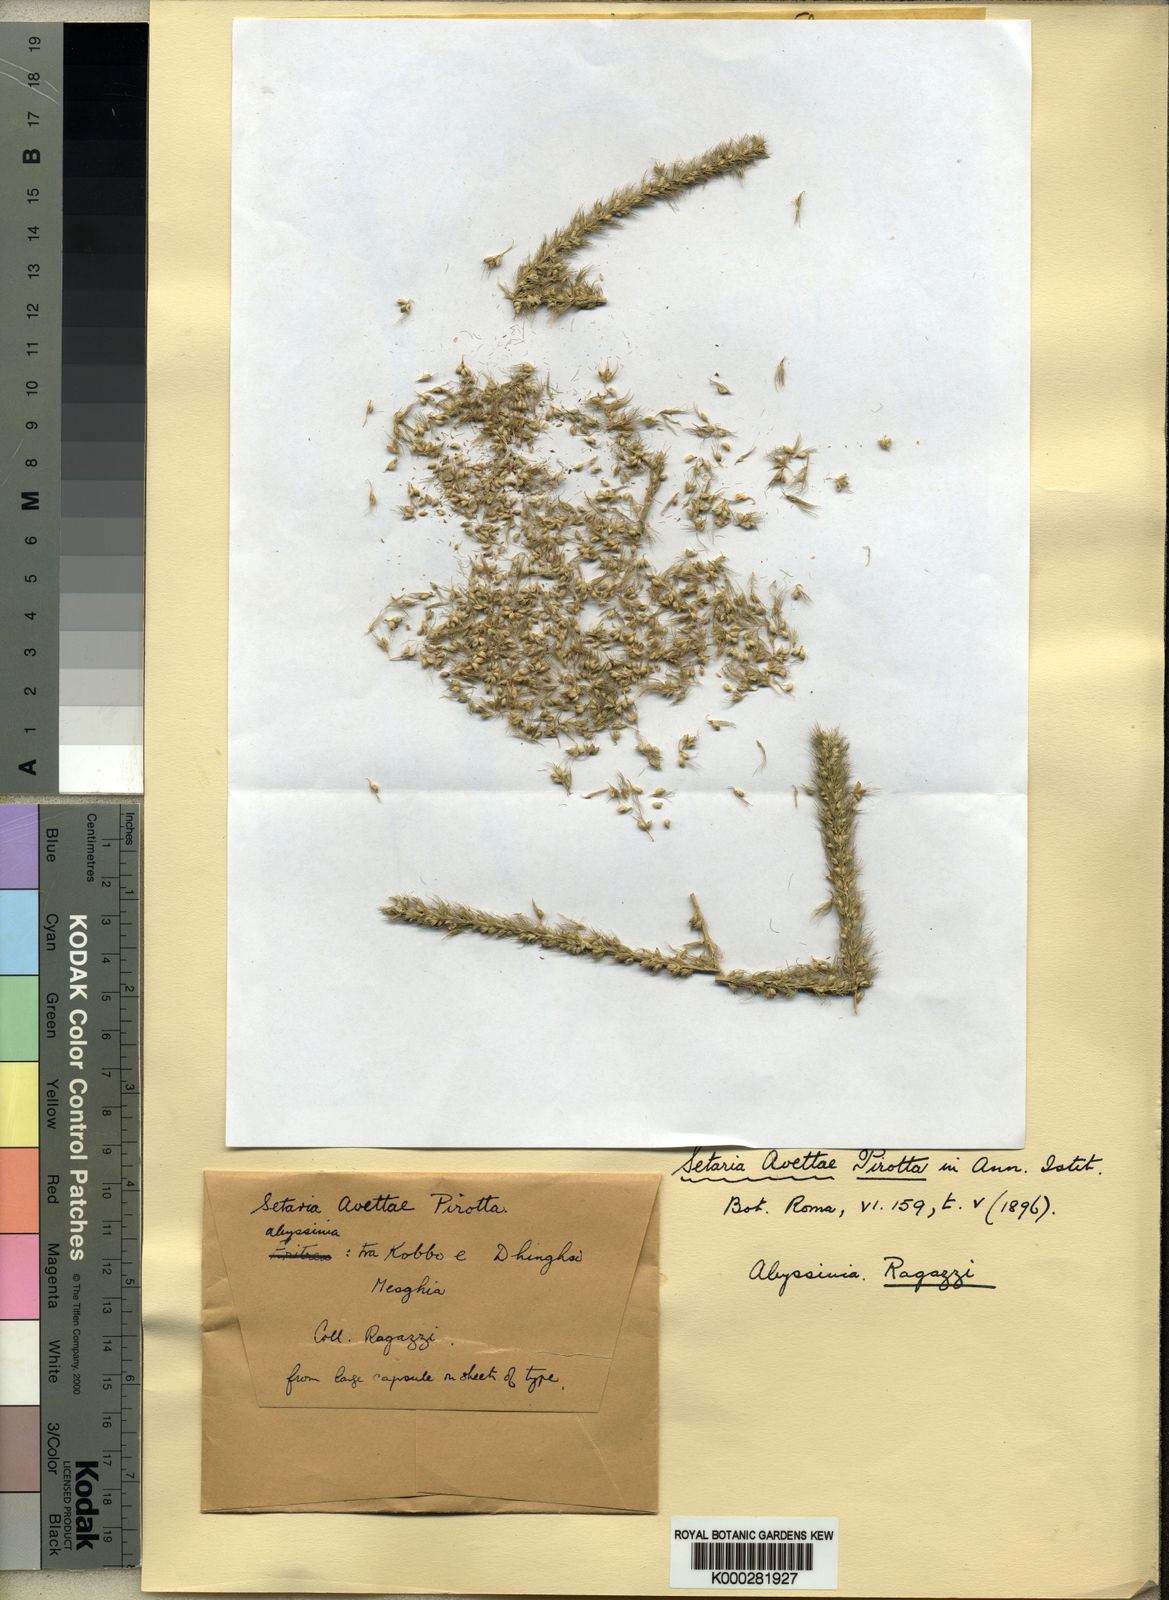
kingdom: Plantae
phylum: Tracheophyta
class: Liliopsida
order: Poales
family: Poaceae
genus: Setaria
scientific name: Setaria incrassata
